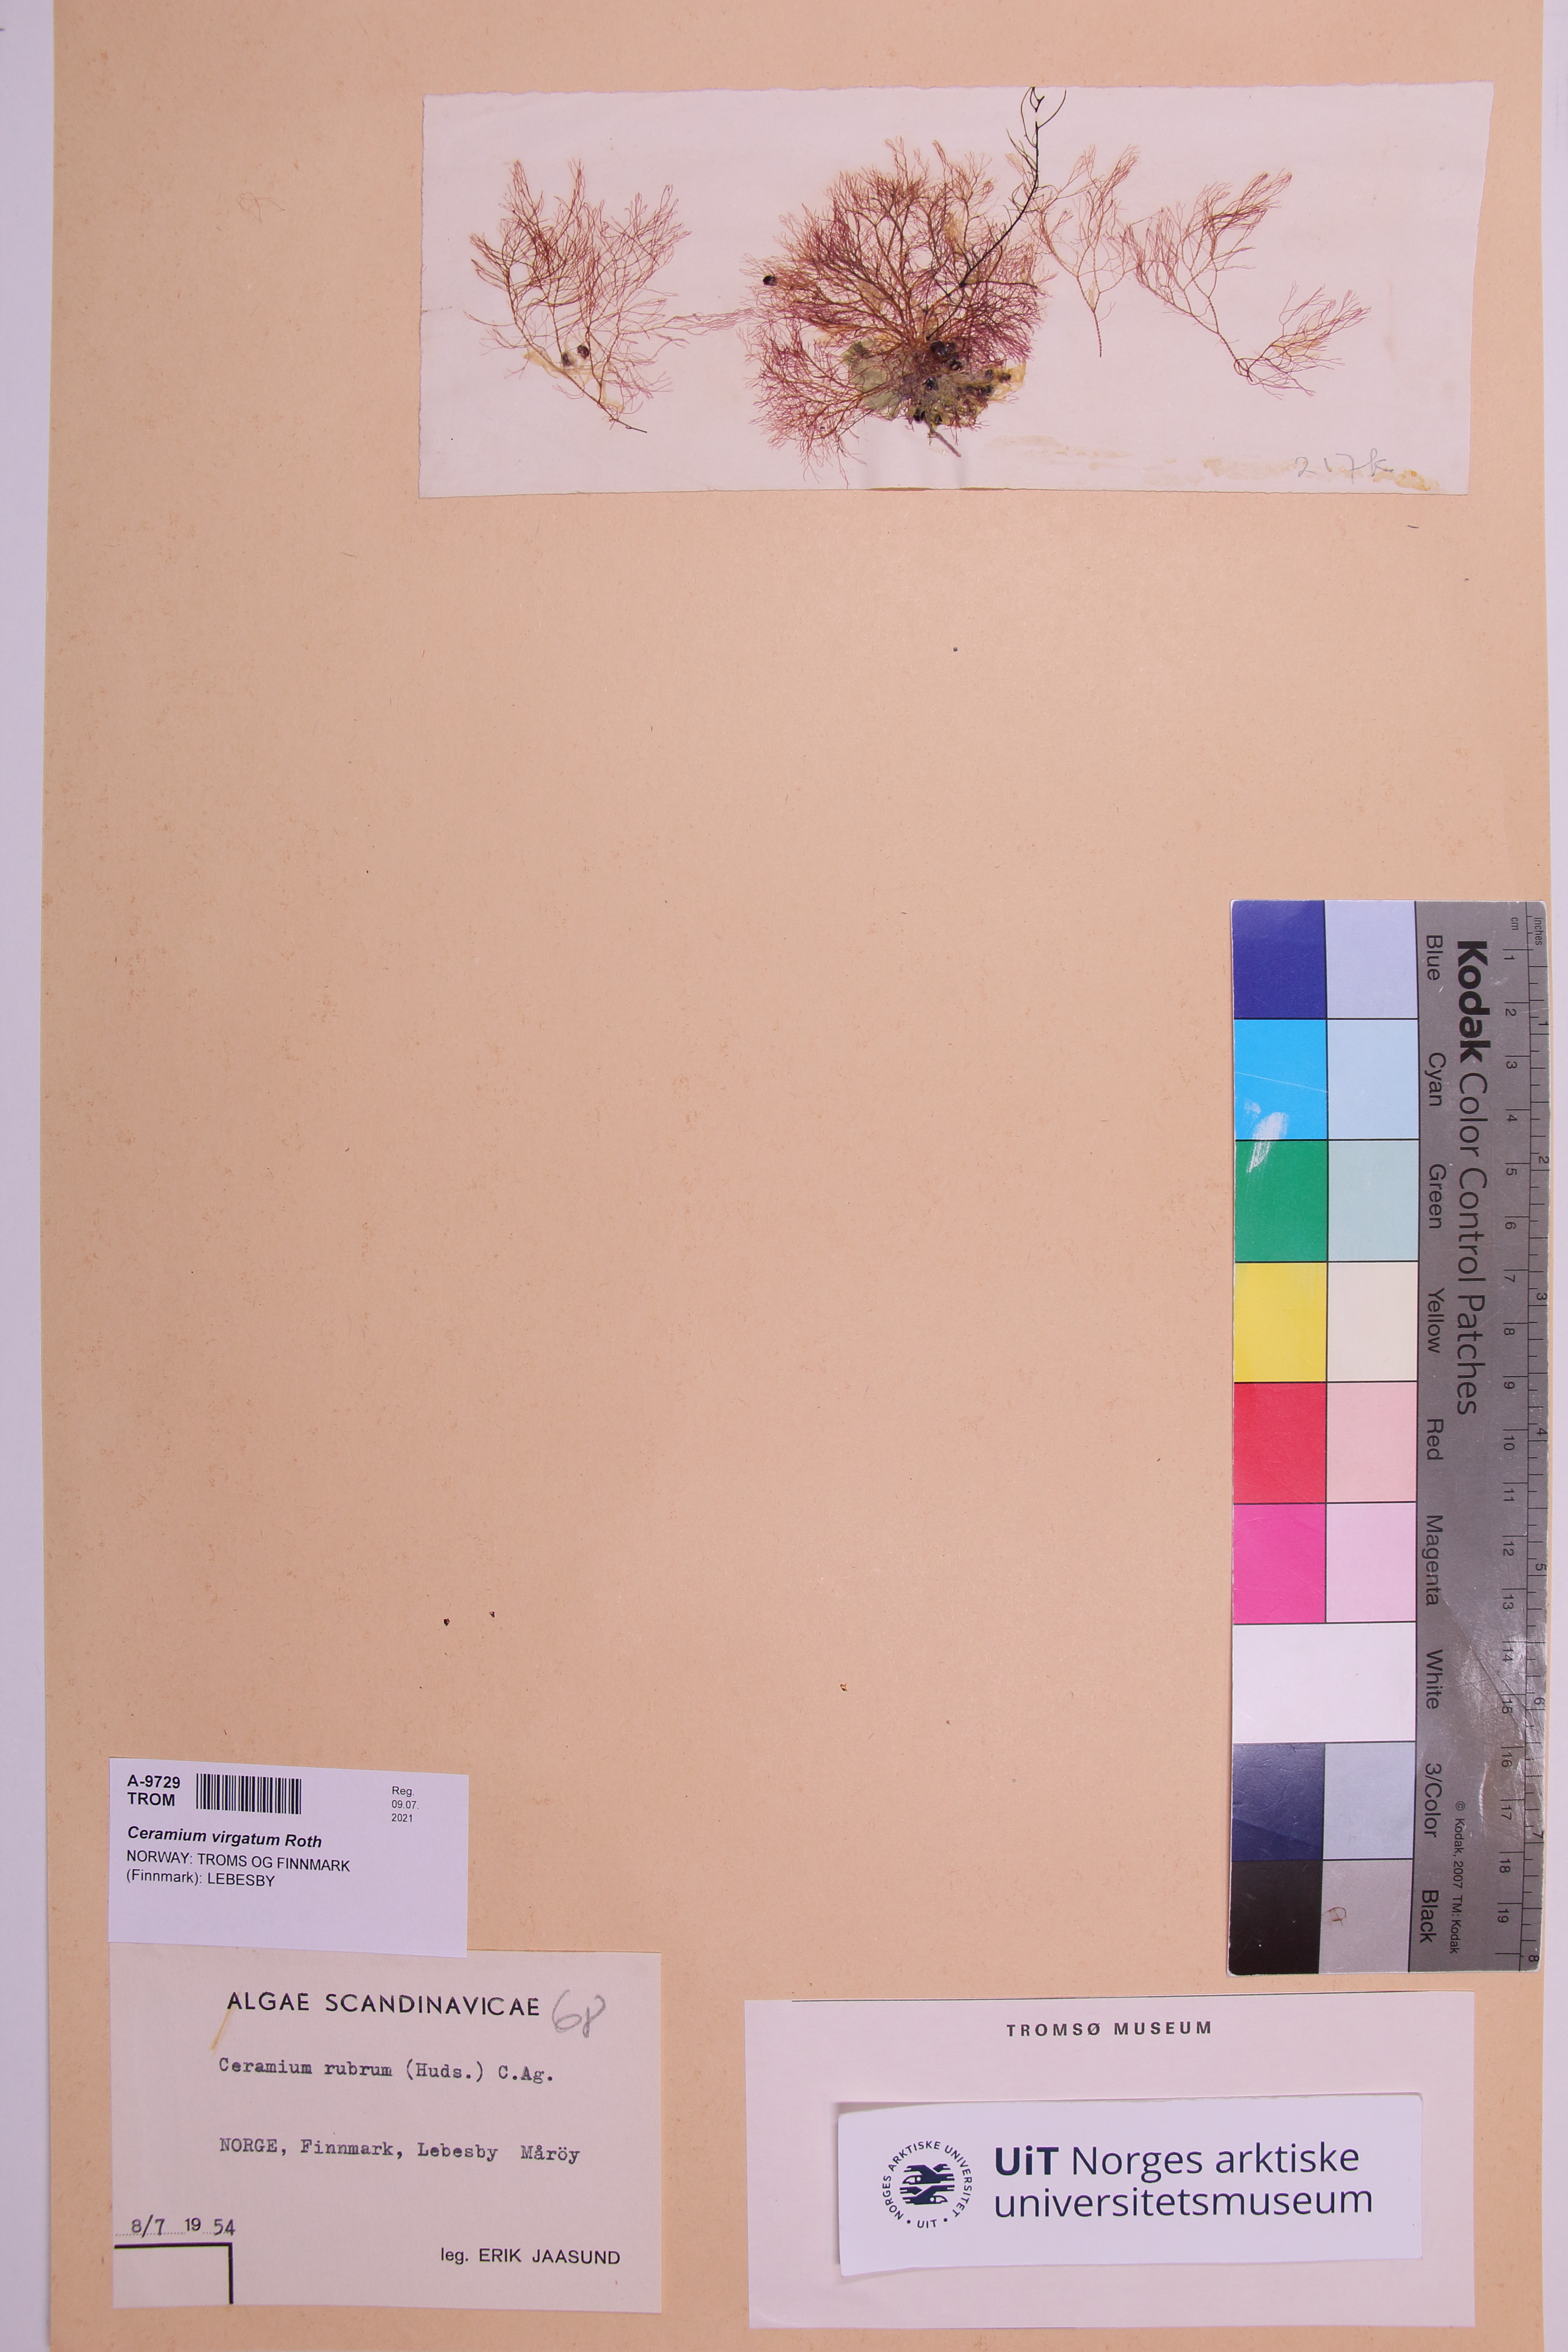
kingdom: Plantae
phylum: Rhodophyta
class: Florideophyceae
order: Ceramiales
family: Ceramiaceae
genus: Ceramium
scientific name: Ceramium virgatum
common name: Red hornweed
